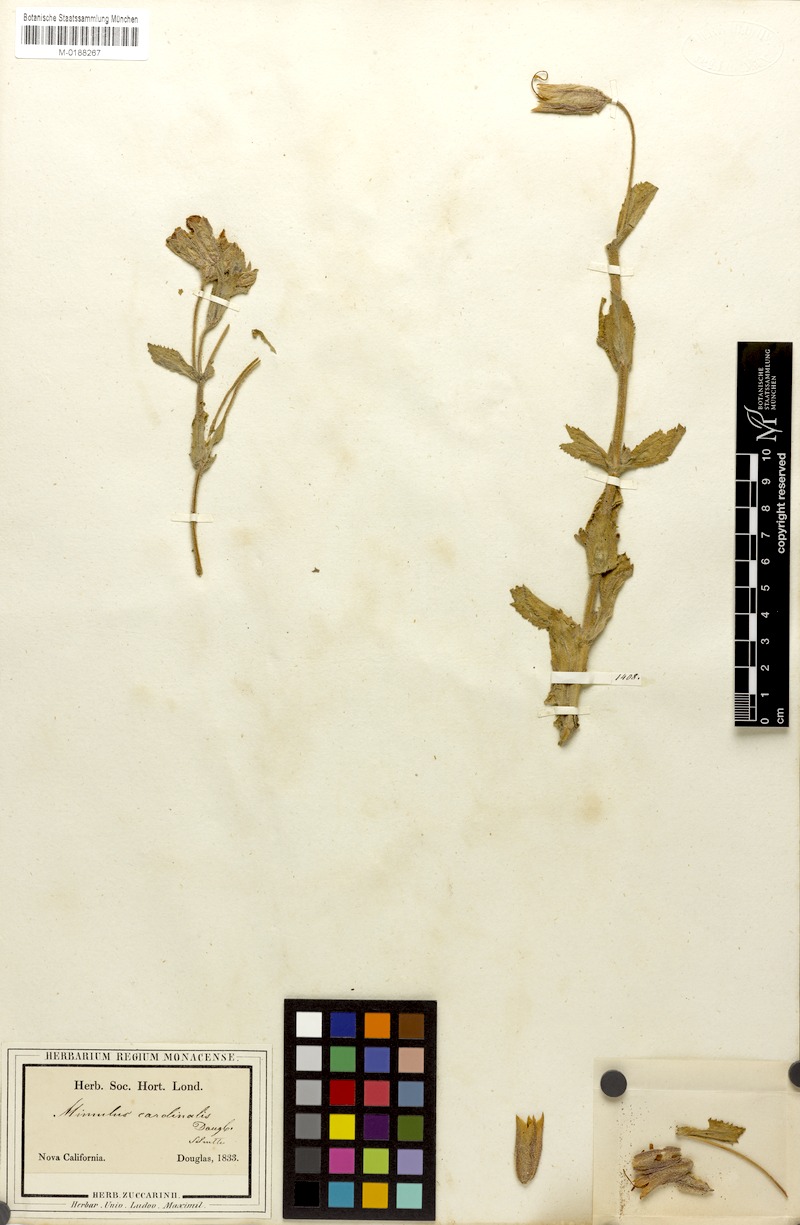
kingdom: Plantae
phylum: Tracheophyta
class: Magnoliopsida
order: Lamiales
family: Phrymaceae
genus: Erythranthe
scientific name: Erythranthe cardinalis
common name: Scarlet monkey-flower
